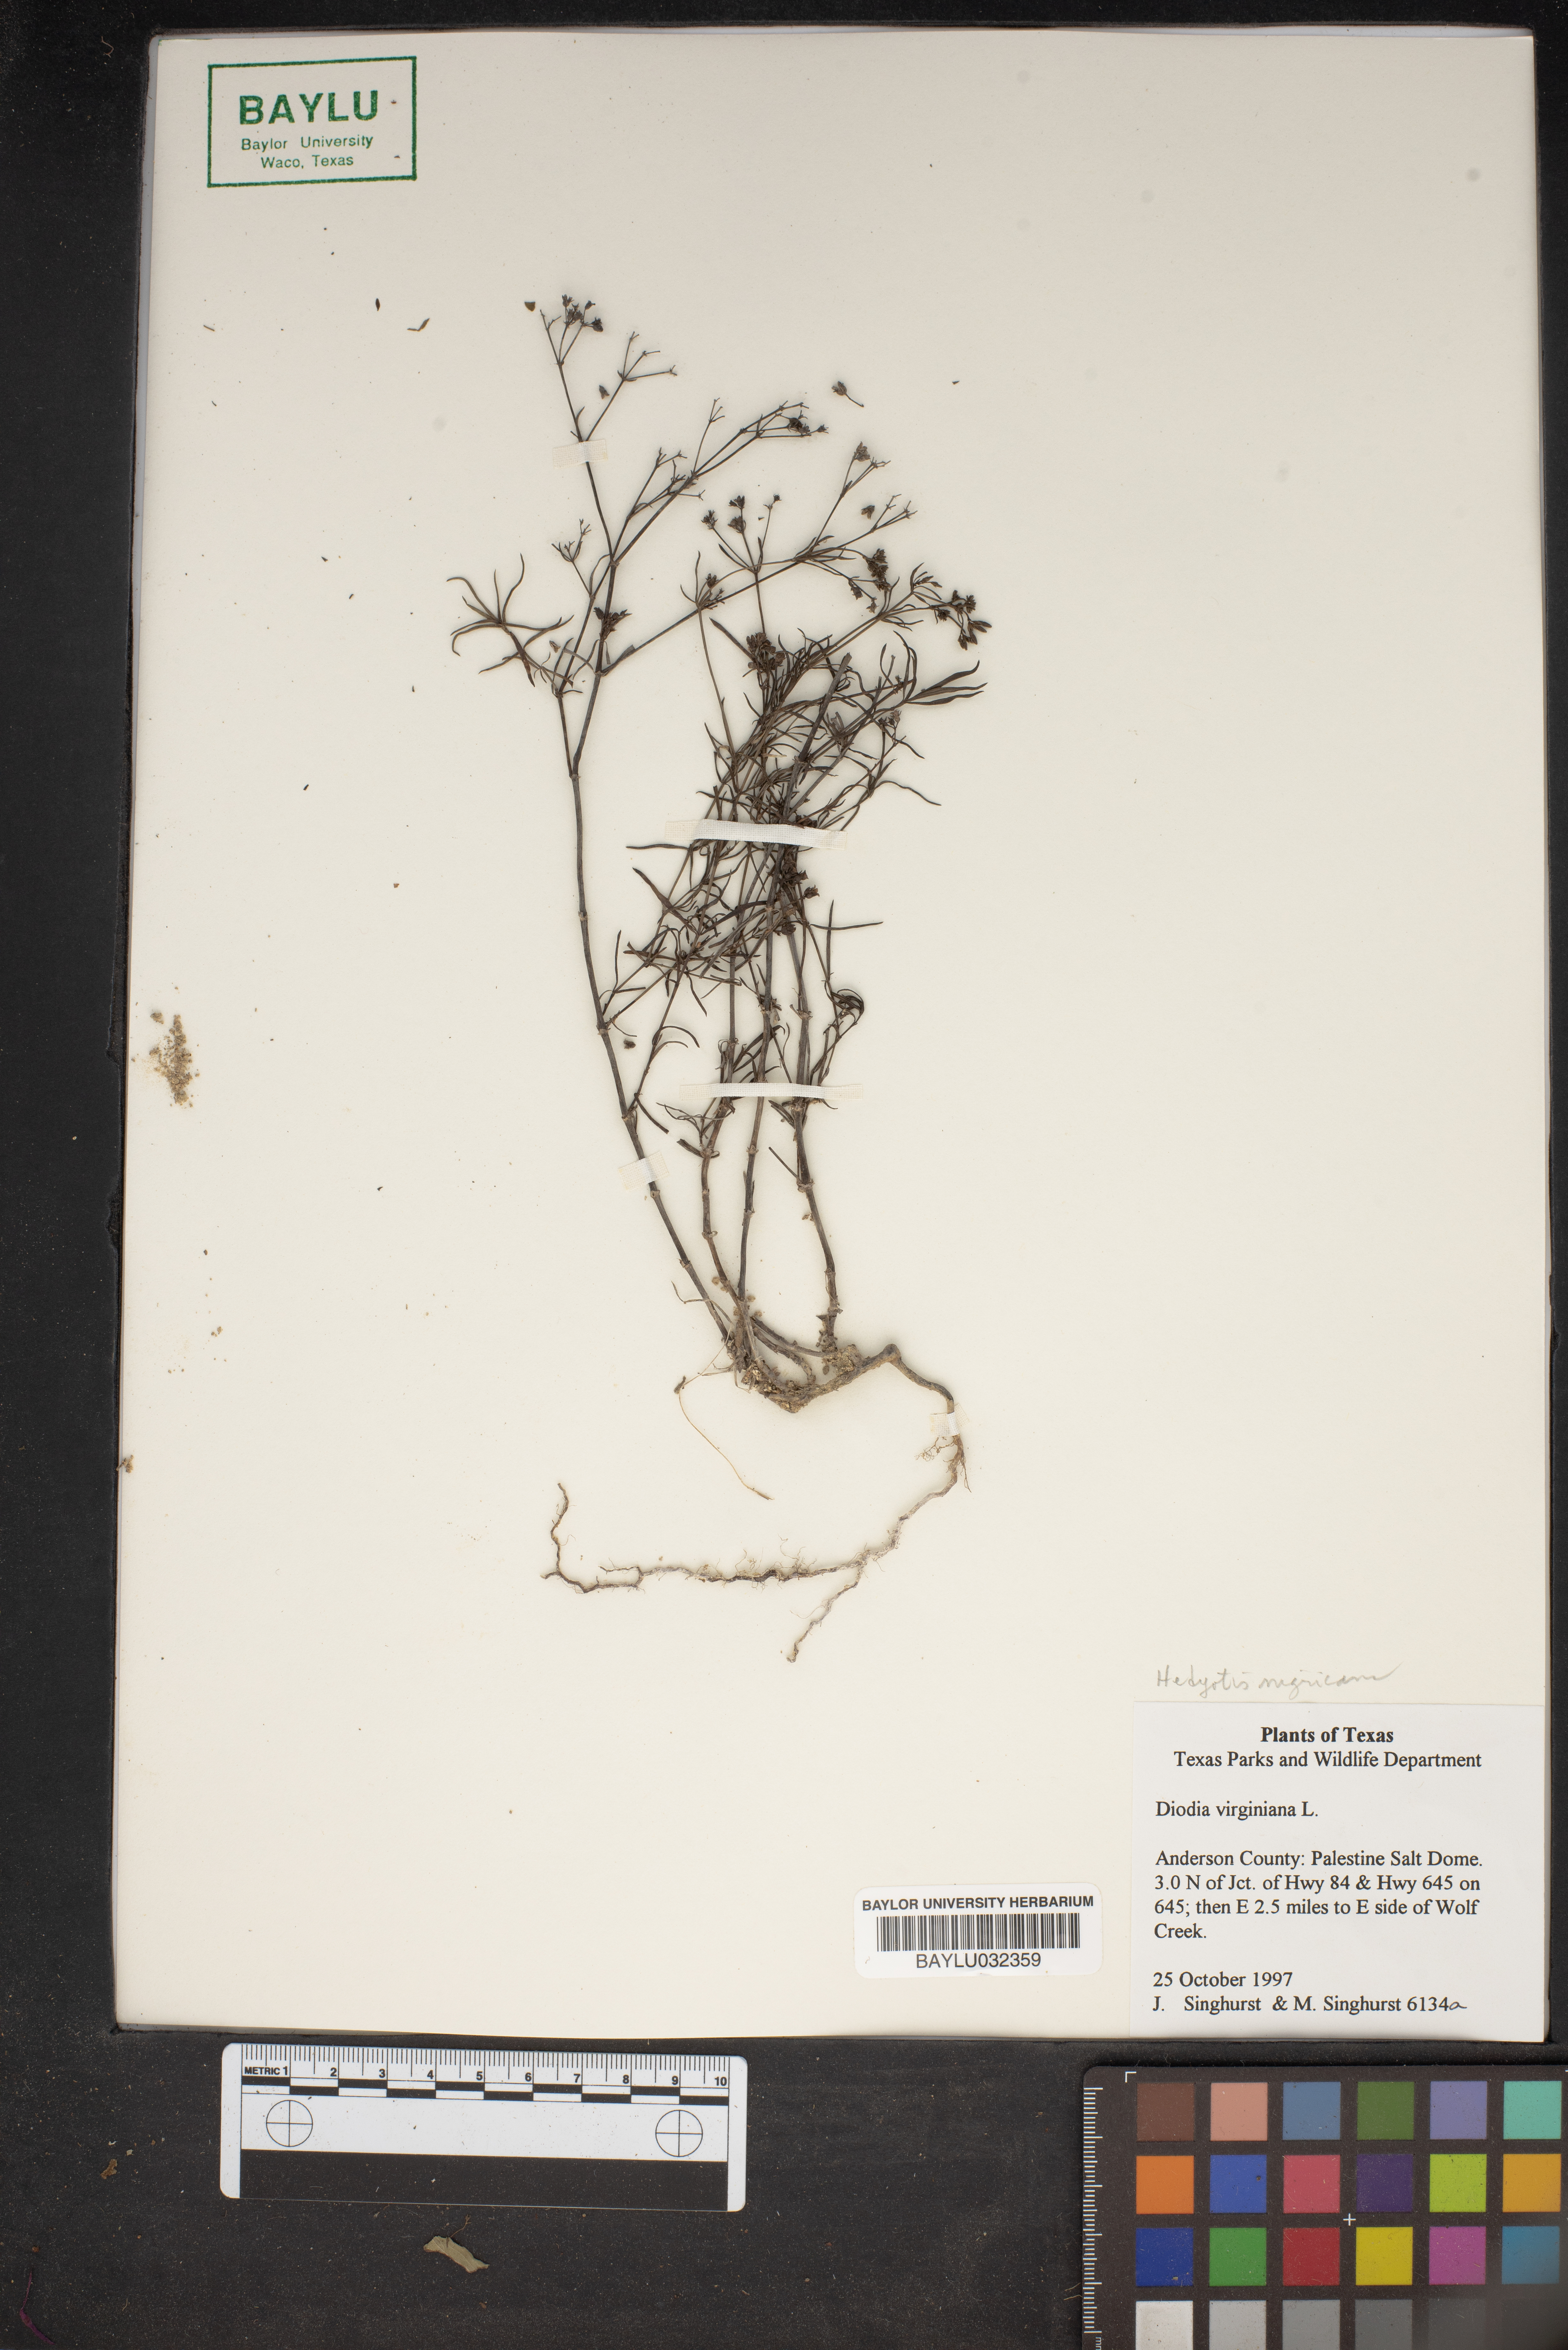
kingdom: Plantae
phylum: Tracheophyta
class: Magnoliopsida
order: Gentianales
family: Rubiaceae
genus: Diodia
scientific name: Diodia virginiana
